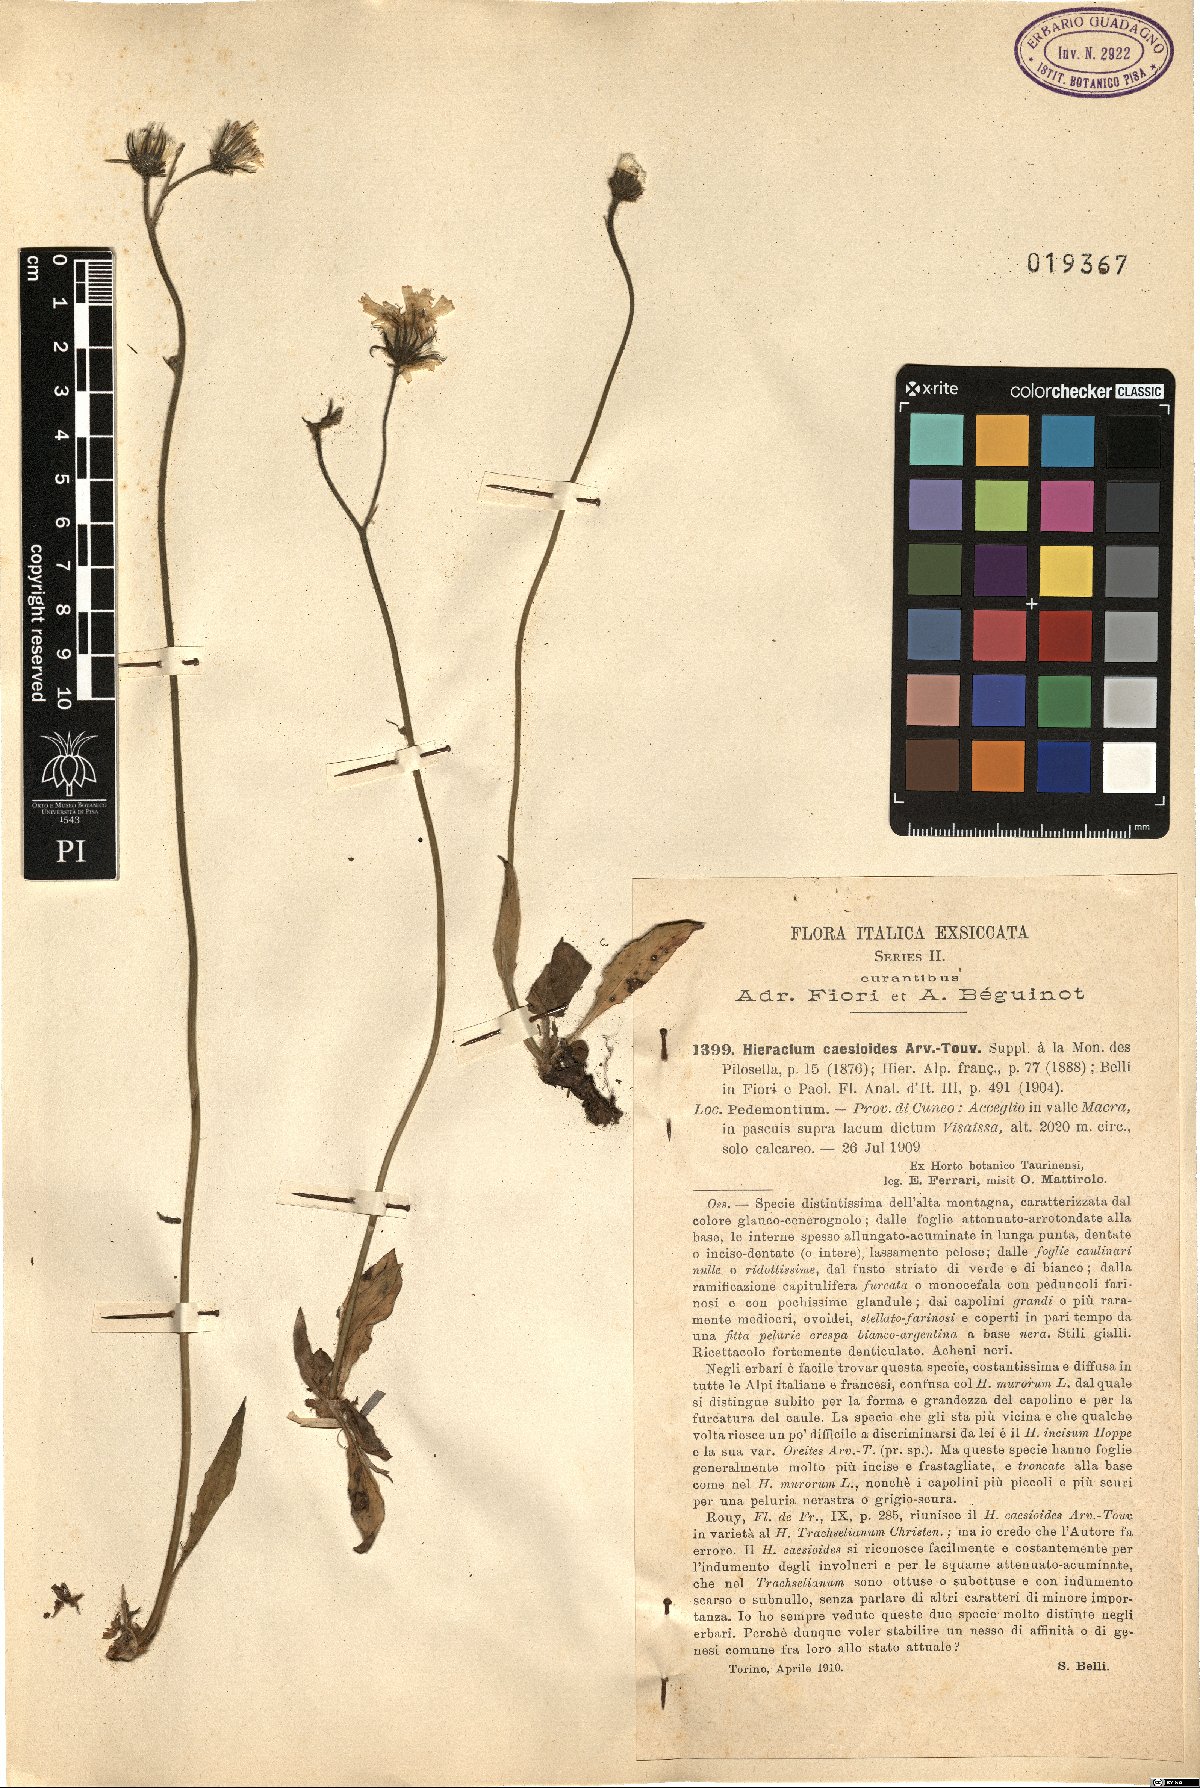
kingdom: Plantae
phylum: Tracheophyta
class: Magnoliopsida
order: Asterales
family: Asteraceae
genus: Hieracium
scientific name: Hieracium caesioides
